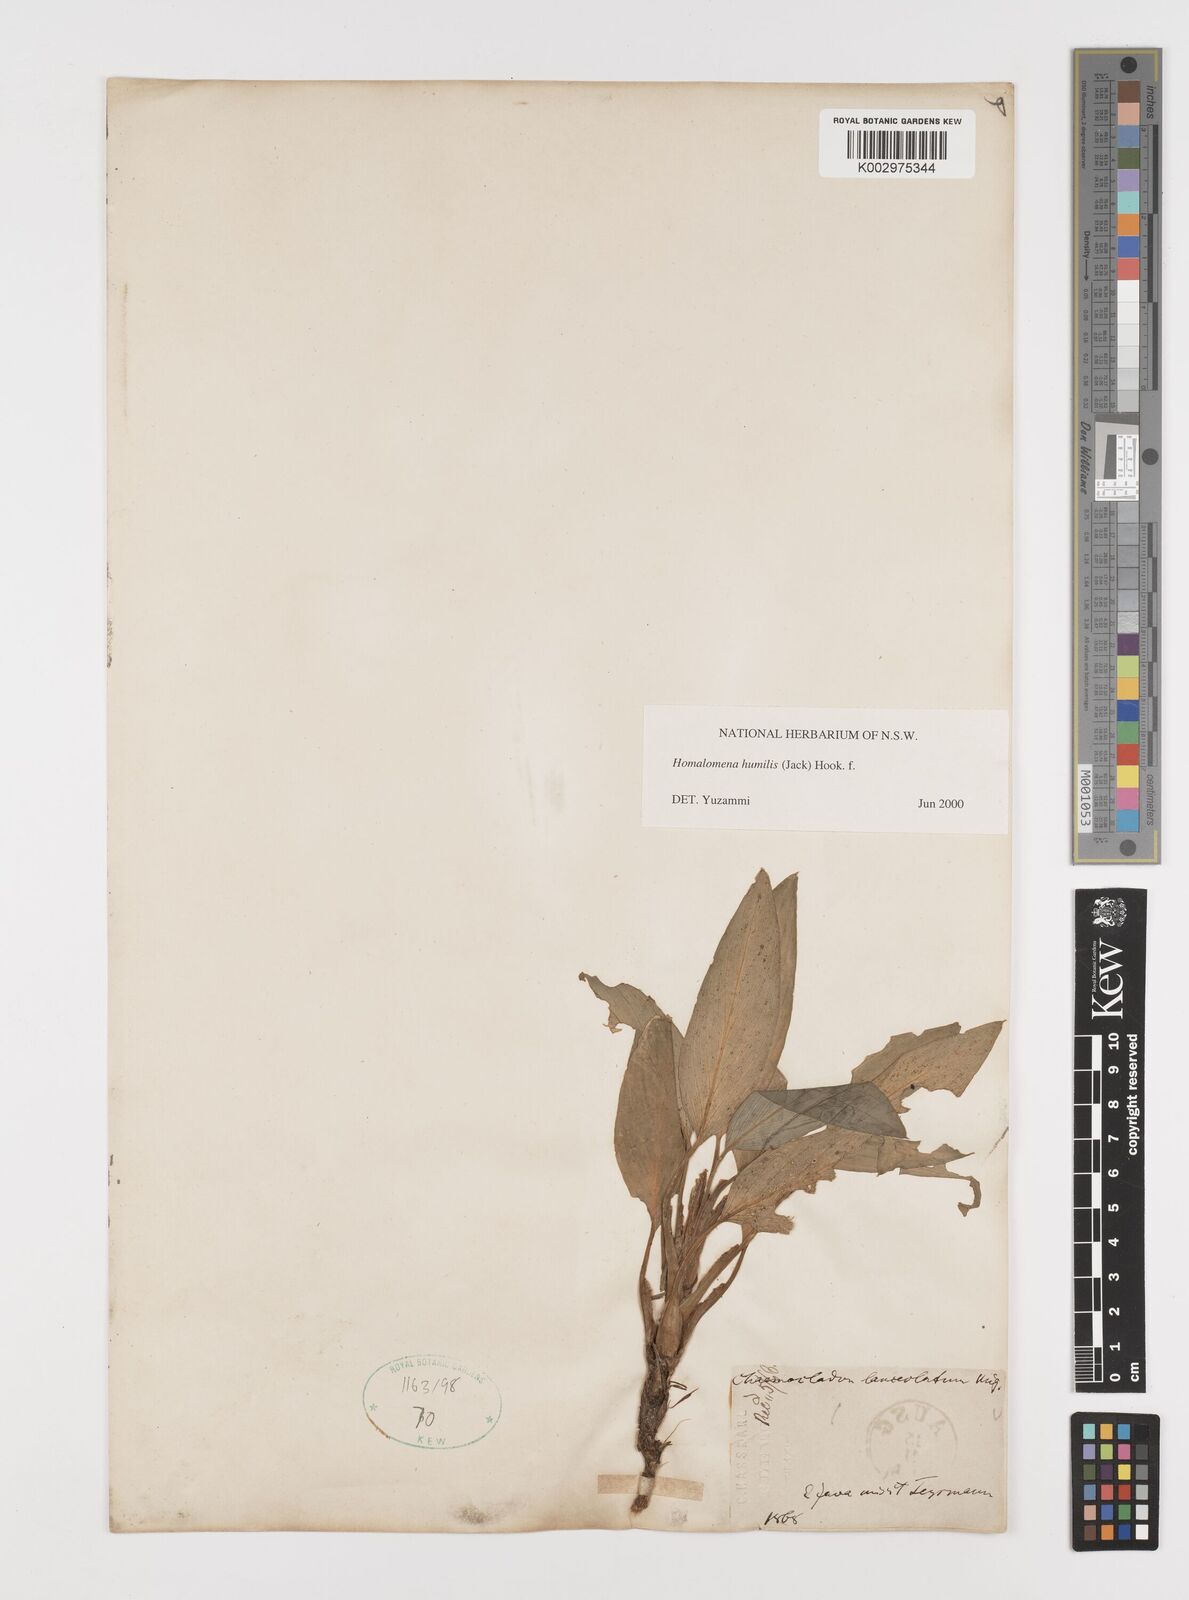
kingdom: Plantae
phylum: Tracheophyta
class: Liliopsida
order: Alismatales
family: Araceae
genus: Homalomena
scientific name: Homalomena humilis
